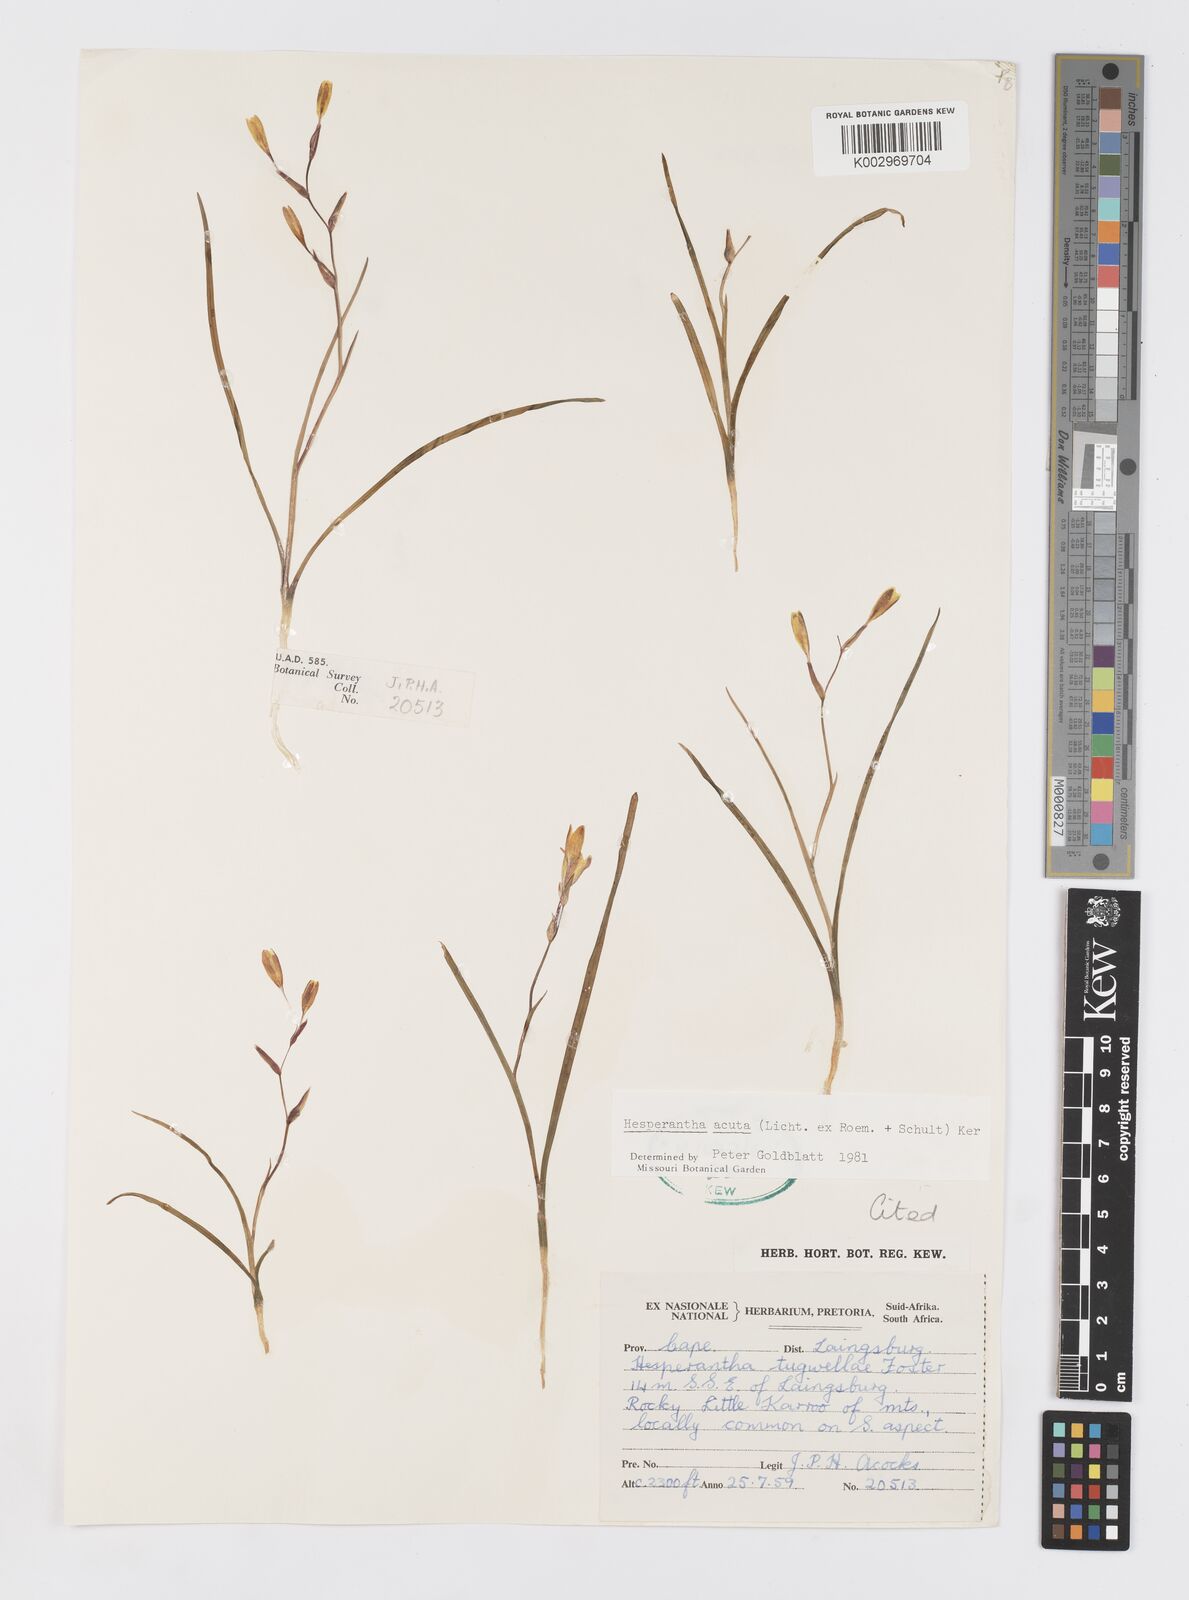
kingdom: Plantae
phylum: Tracheophyta
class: Liliopsida
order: Asparagales
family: Iridaceae
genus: Hesperantha
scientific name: Hesperantha acuta
